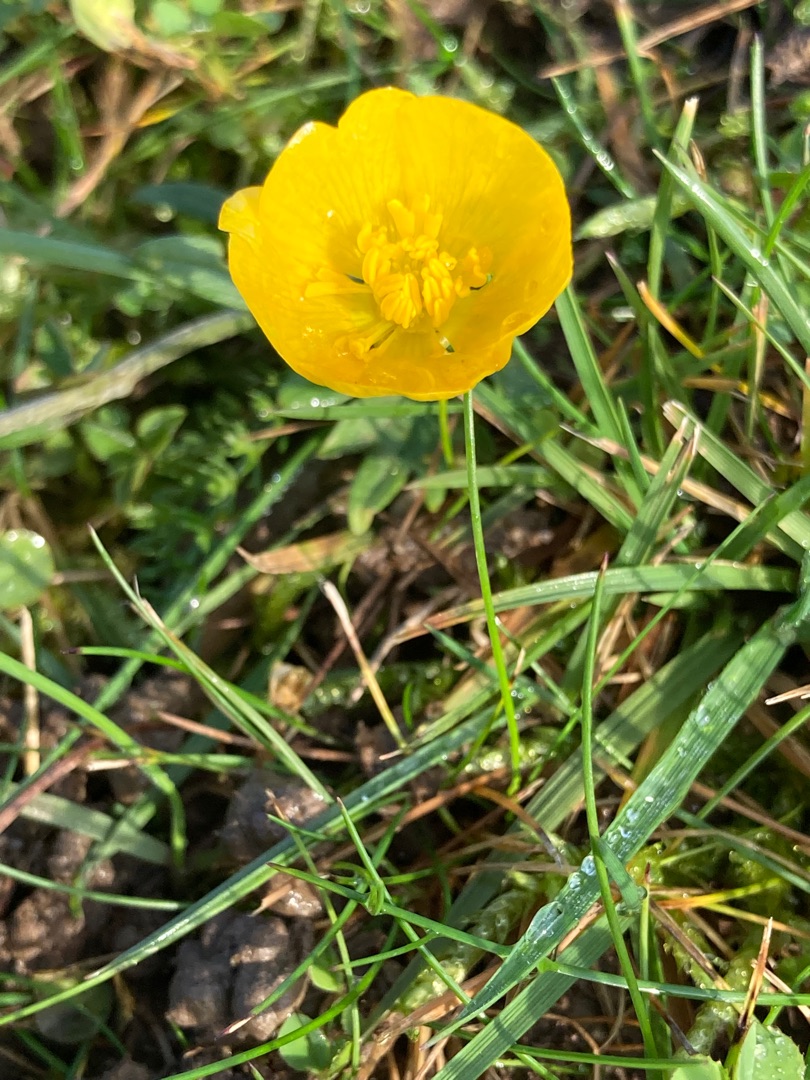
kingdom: Plantae
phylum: Tracheophyta
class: Magnoliopsida
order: Ranunculales
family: Ranunculaceae
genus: Ranunculus
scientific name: Ranunculus bulbosus
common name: Knold-ranunkel
